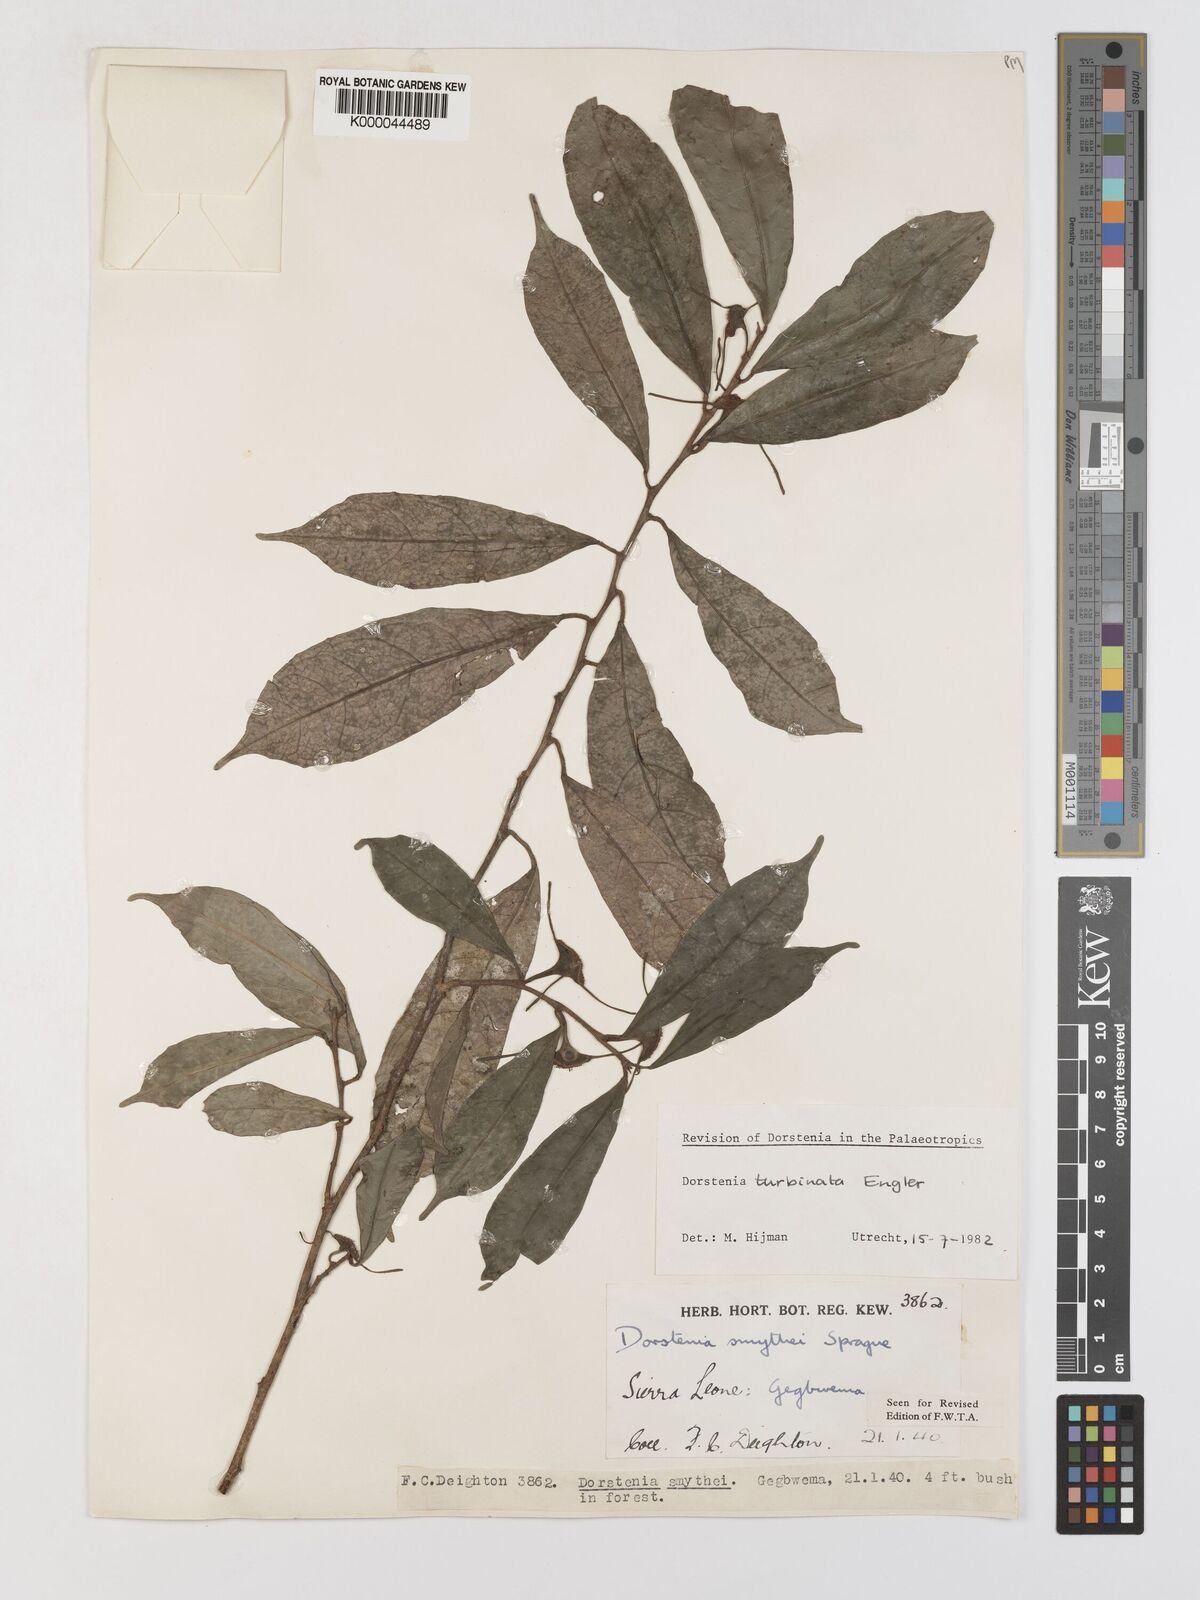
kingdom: Plantae
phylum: Tracheophyta
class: Magnoliopsida
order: Rosales
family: Moraceae
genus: Hijmania
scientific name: Hijmania turbinata
